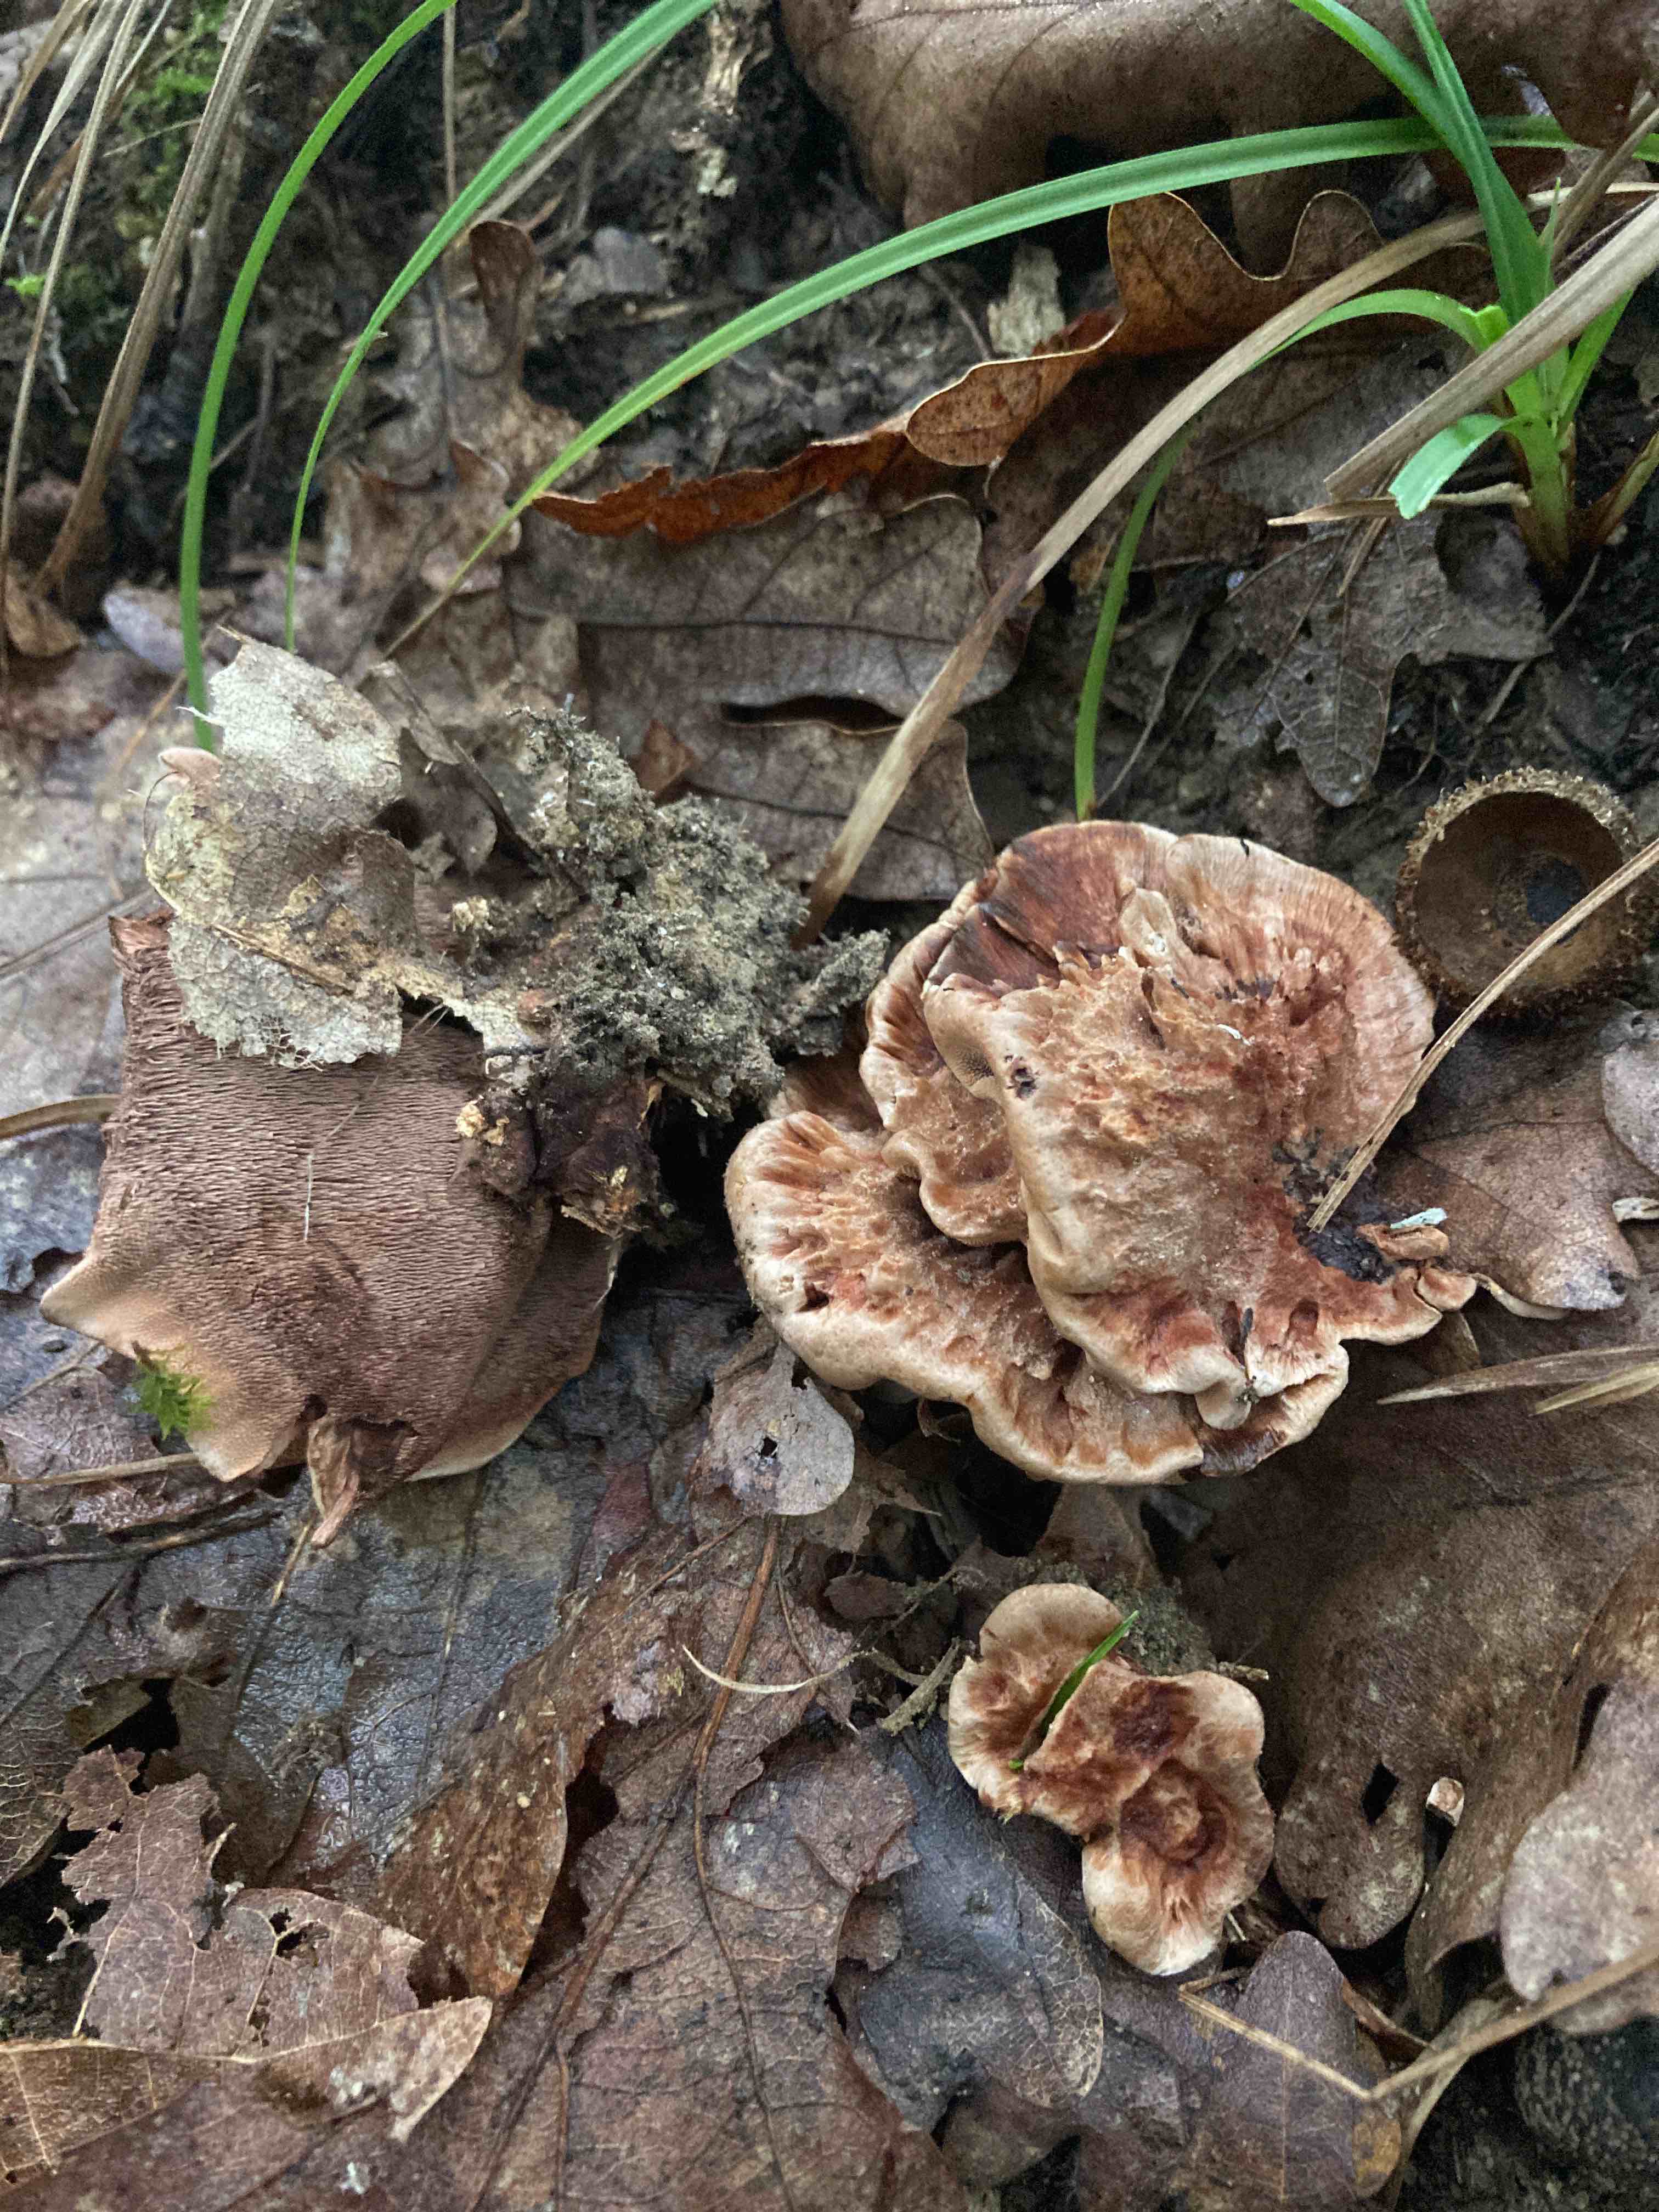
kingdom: Fungi
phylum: Basidiomycota
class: Agaricomycetes
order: Thelephorales
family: Bankeraceae
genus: Hydnellum
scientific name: Hydnellum
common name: korkpigsvamp
